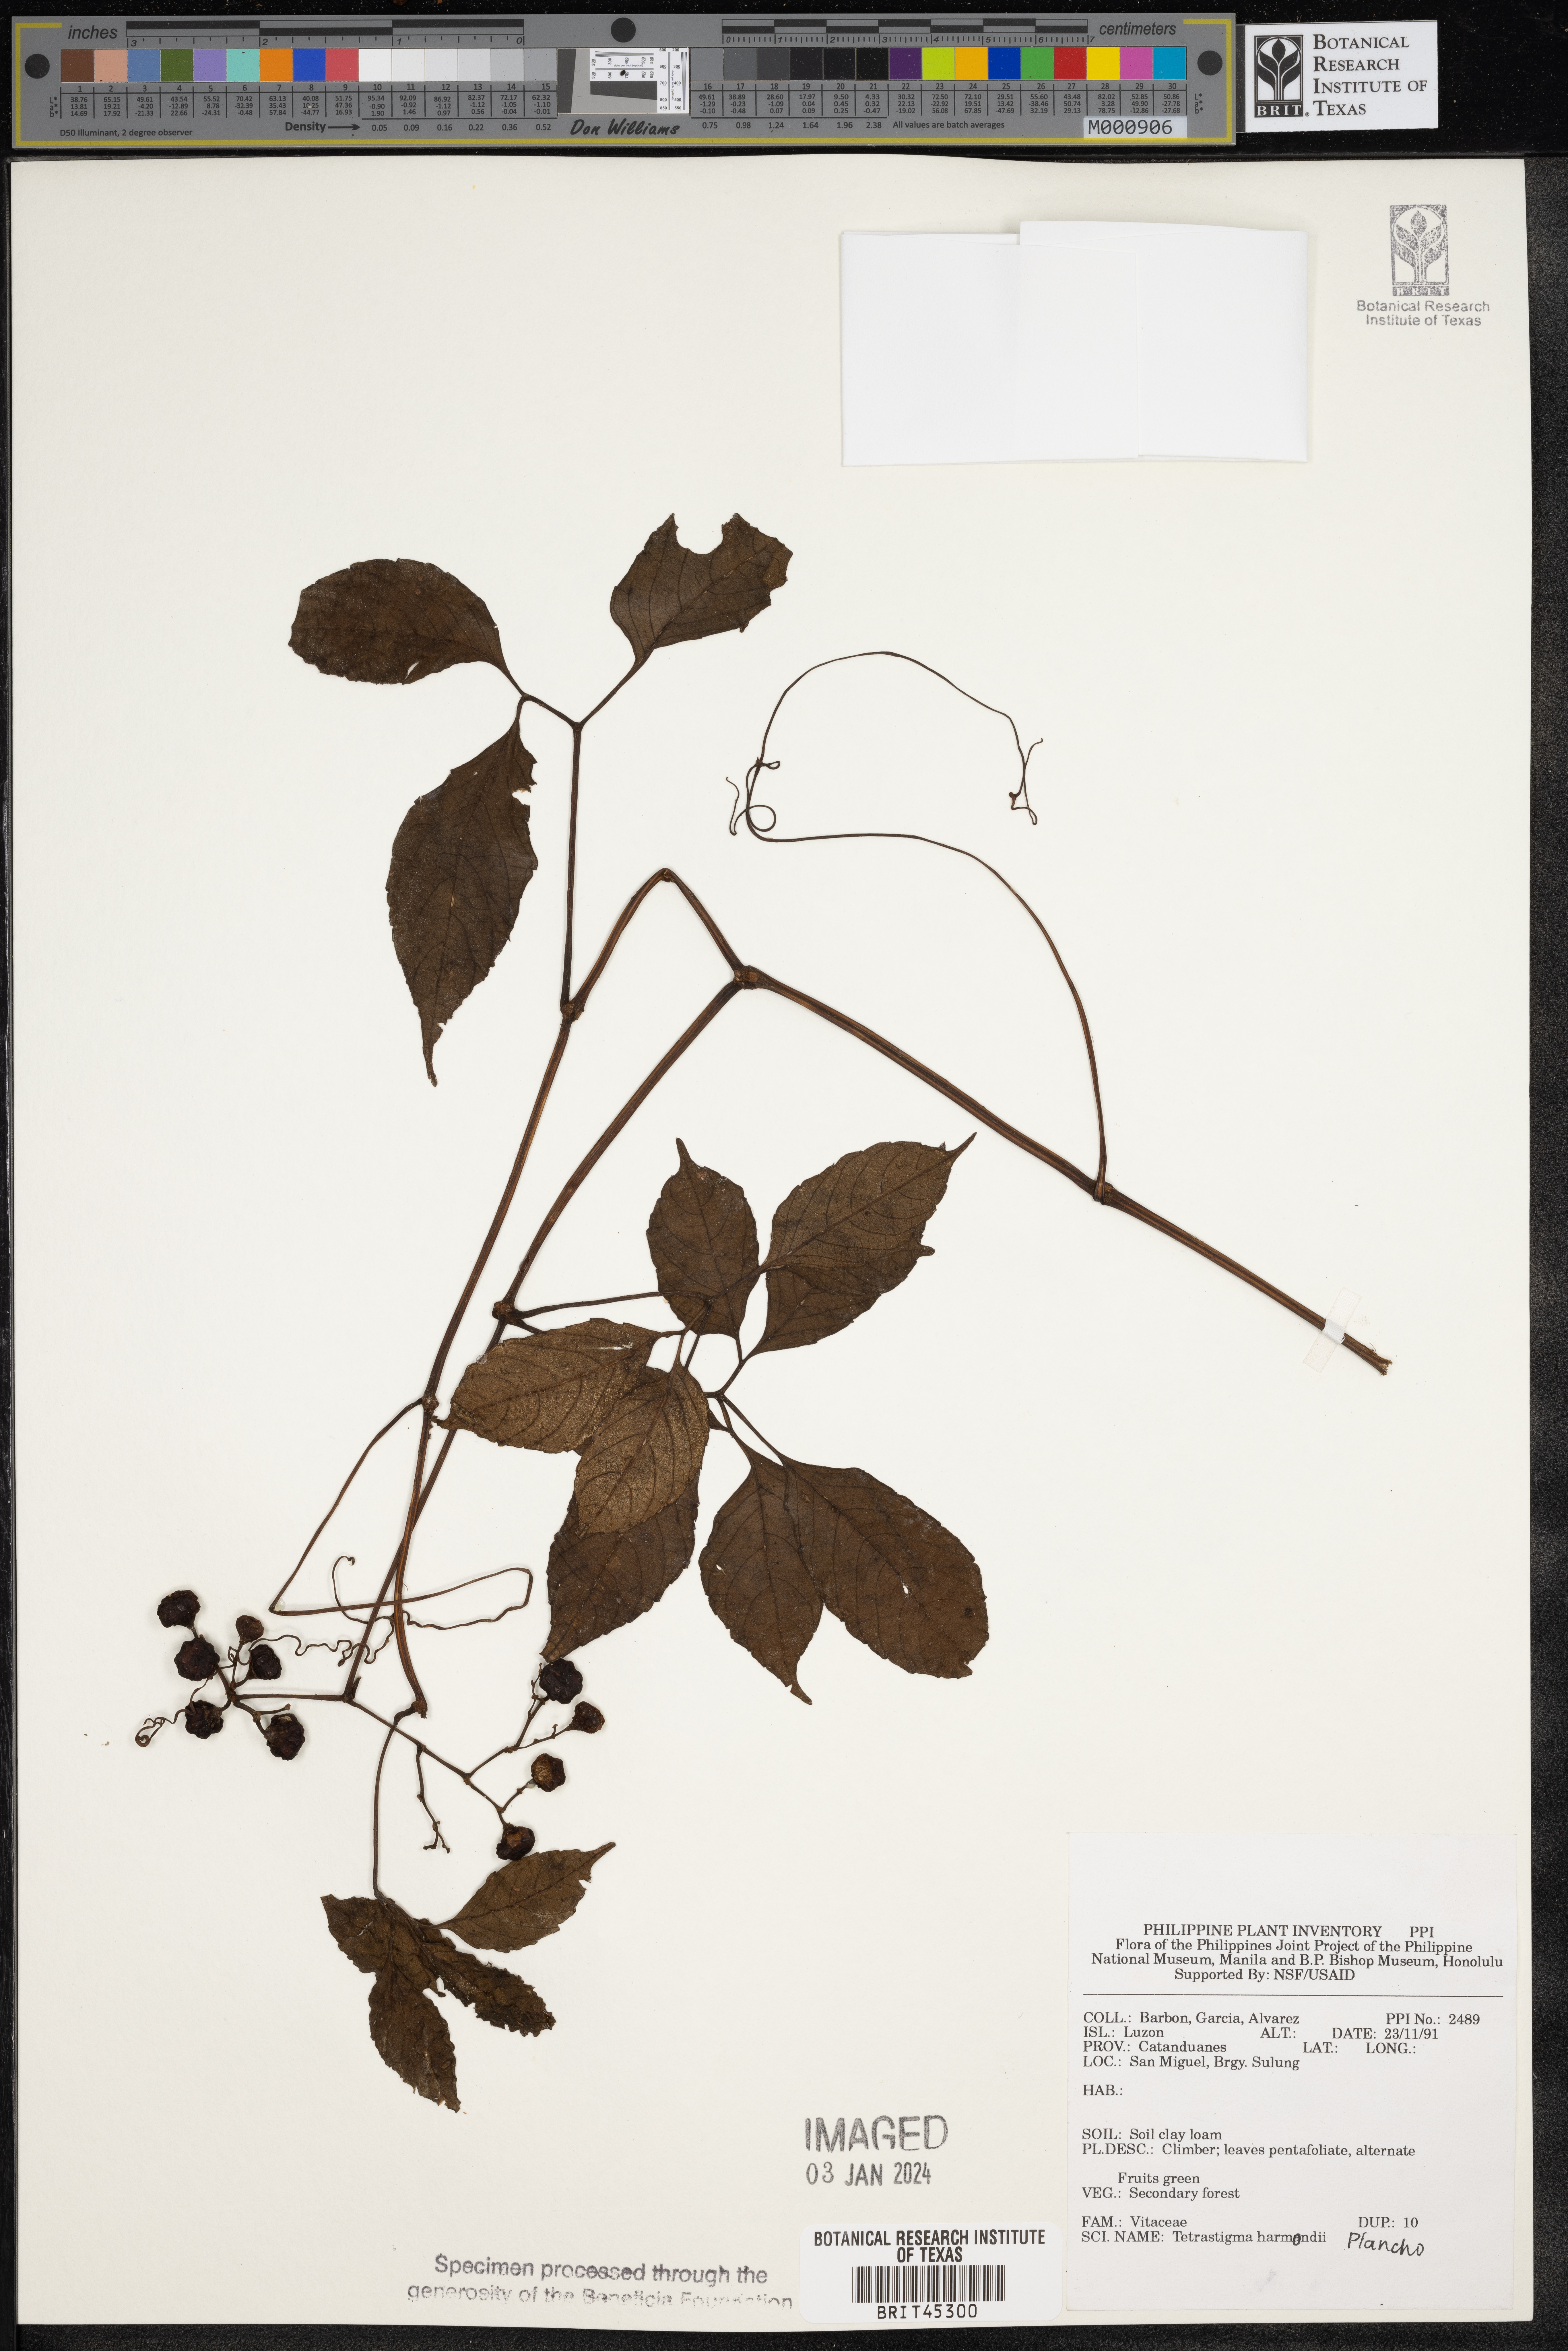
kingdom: Plantae
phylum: Tracheophyta
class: Magnoliopsida
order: Vitales
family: Vitaceae
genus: Tetrastigma
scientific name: Tetrastigma harmandii
